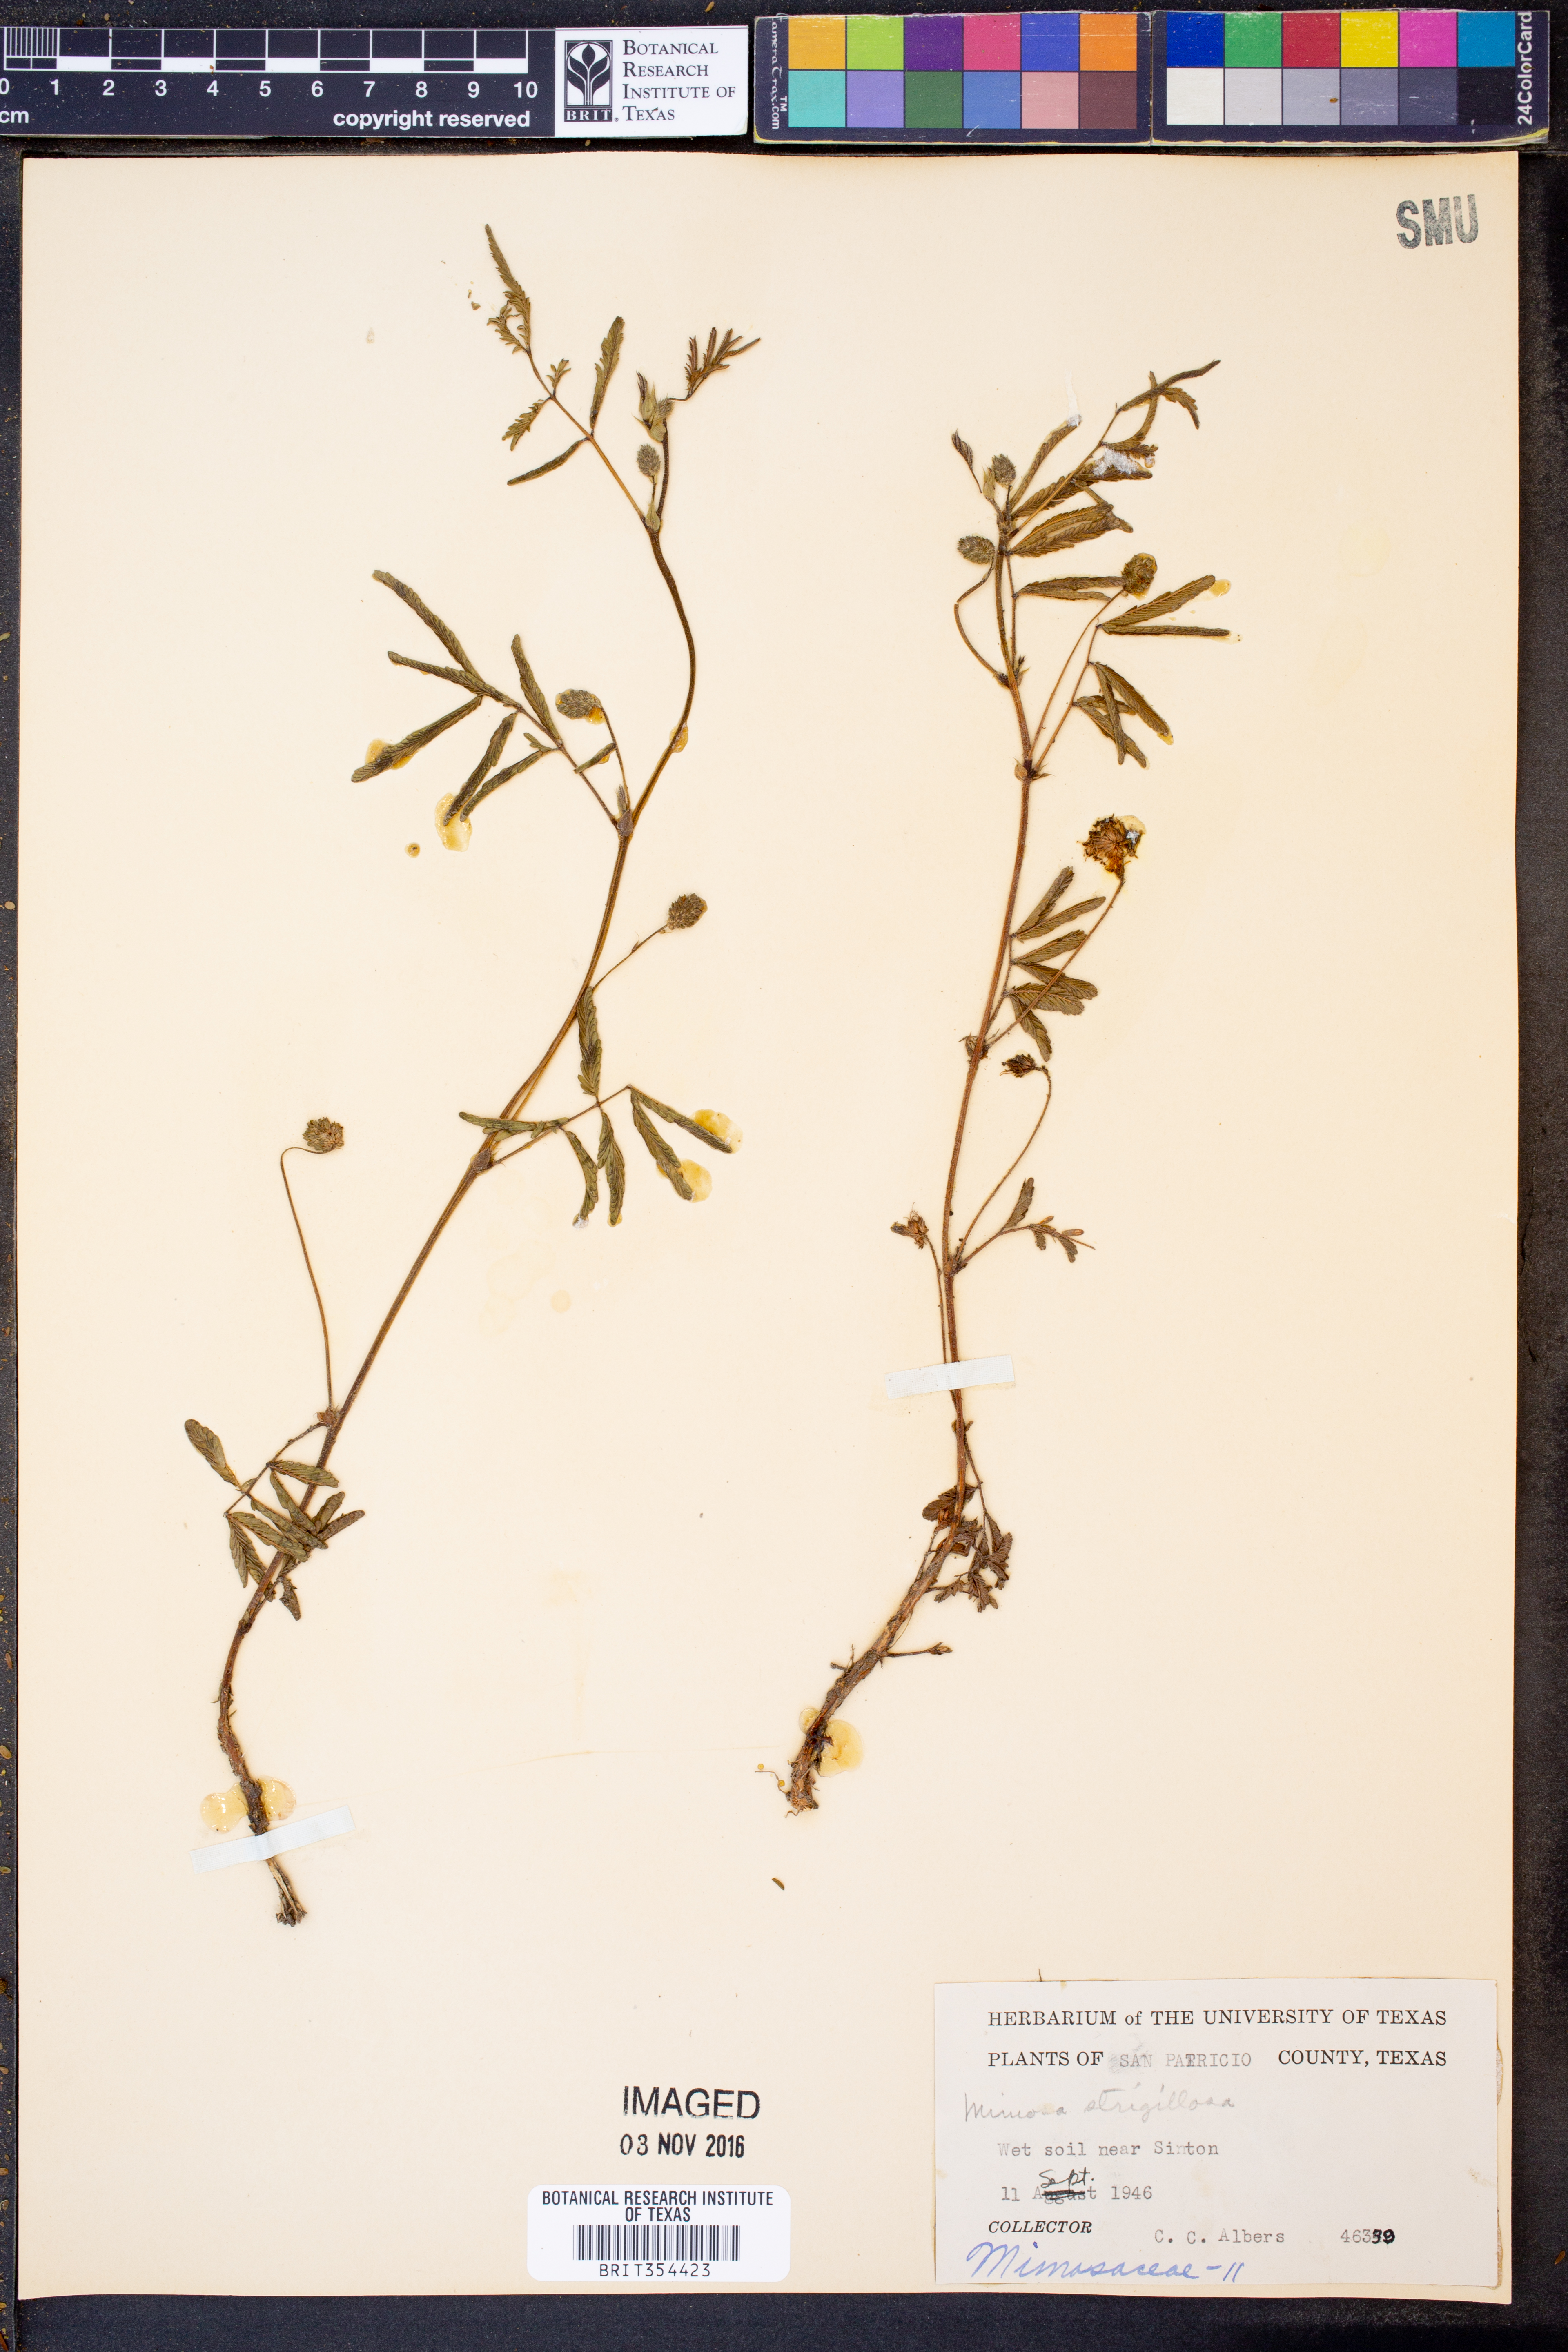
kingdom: Plantae
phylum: Tracheophyta
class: Magnoliopsida
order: Fabales
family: Fabaceae
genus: Mimosa
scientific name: Mimosa strigillosa
